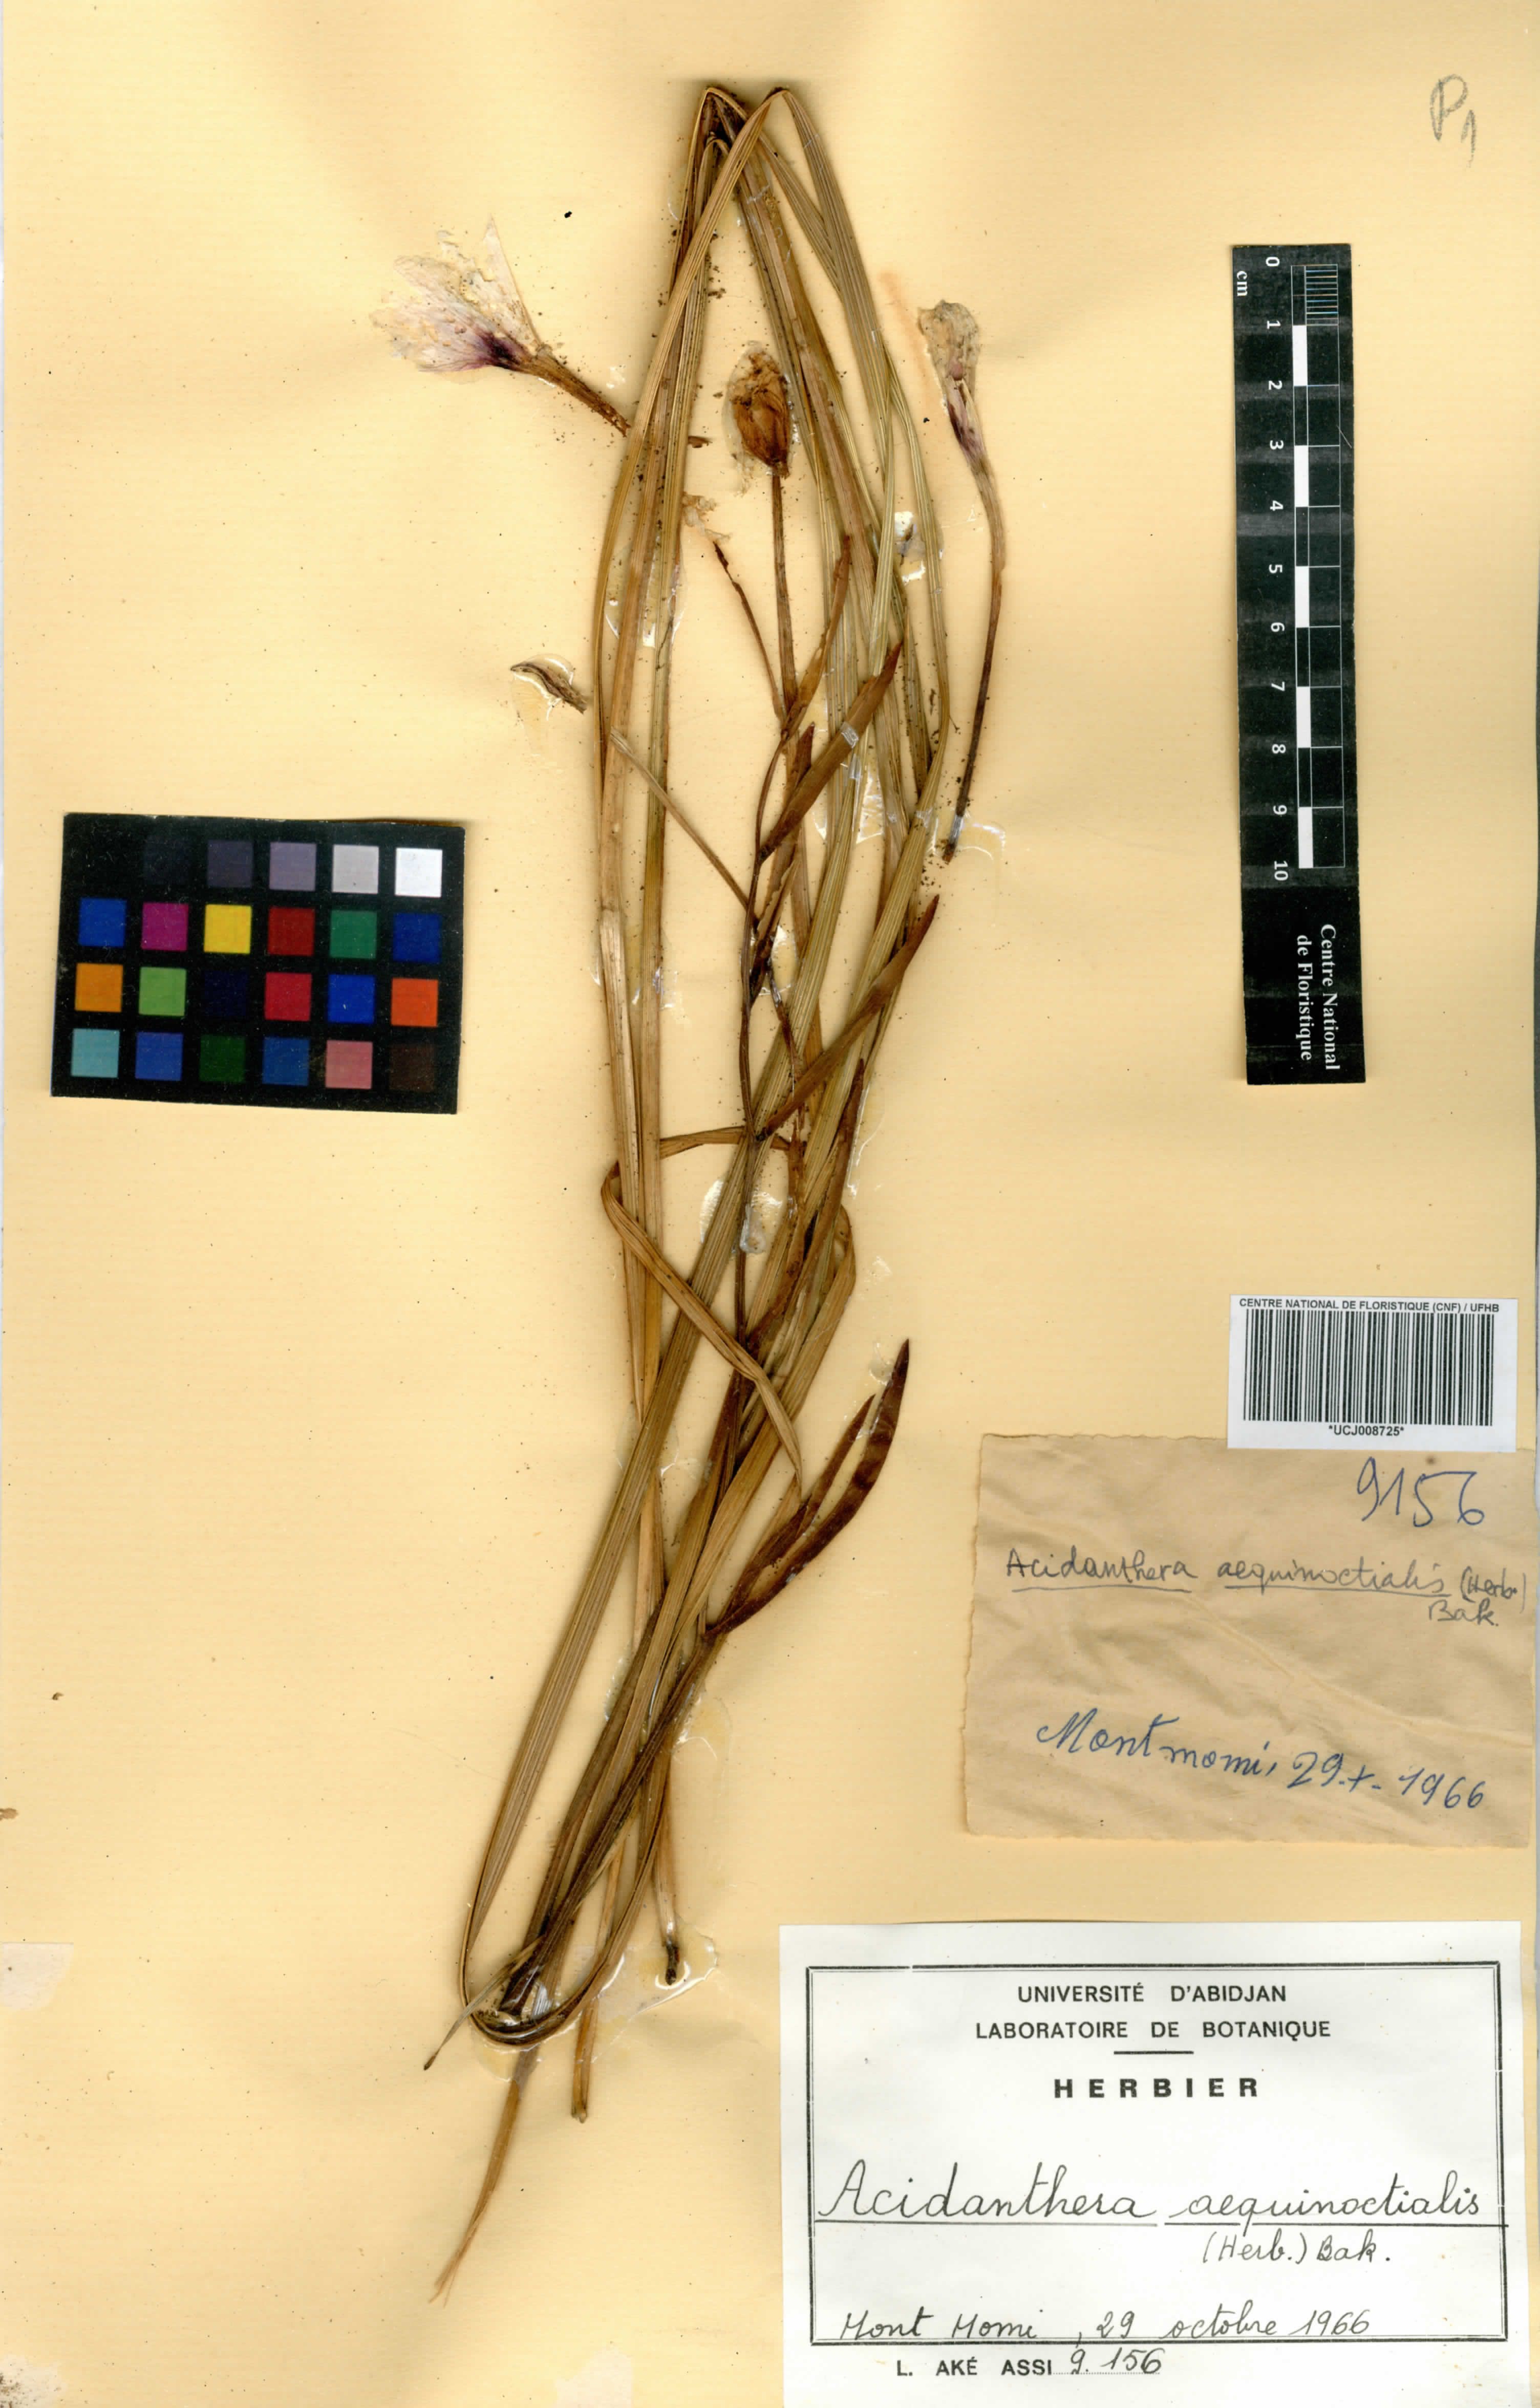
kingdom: Plantae
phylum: Tracheophyta
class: Liliopsida
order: Asparagales
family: Iridaceae
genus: Gladiolus
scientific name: Gladiolus aequinoctialis
